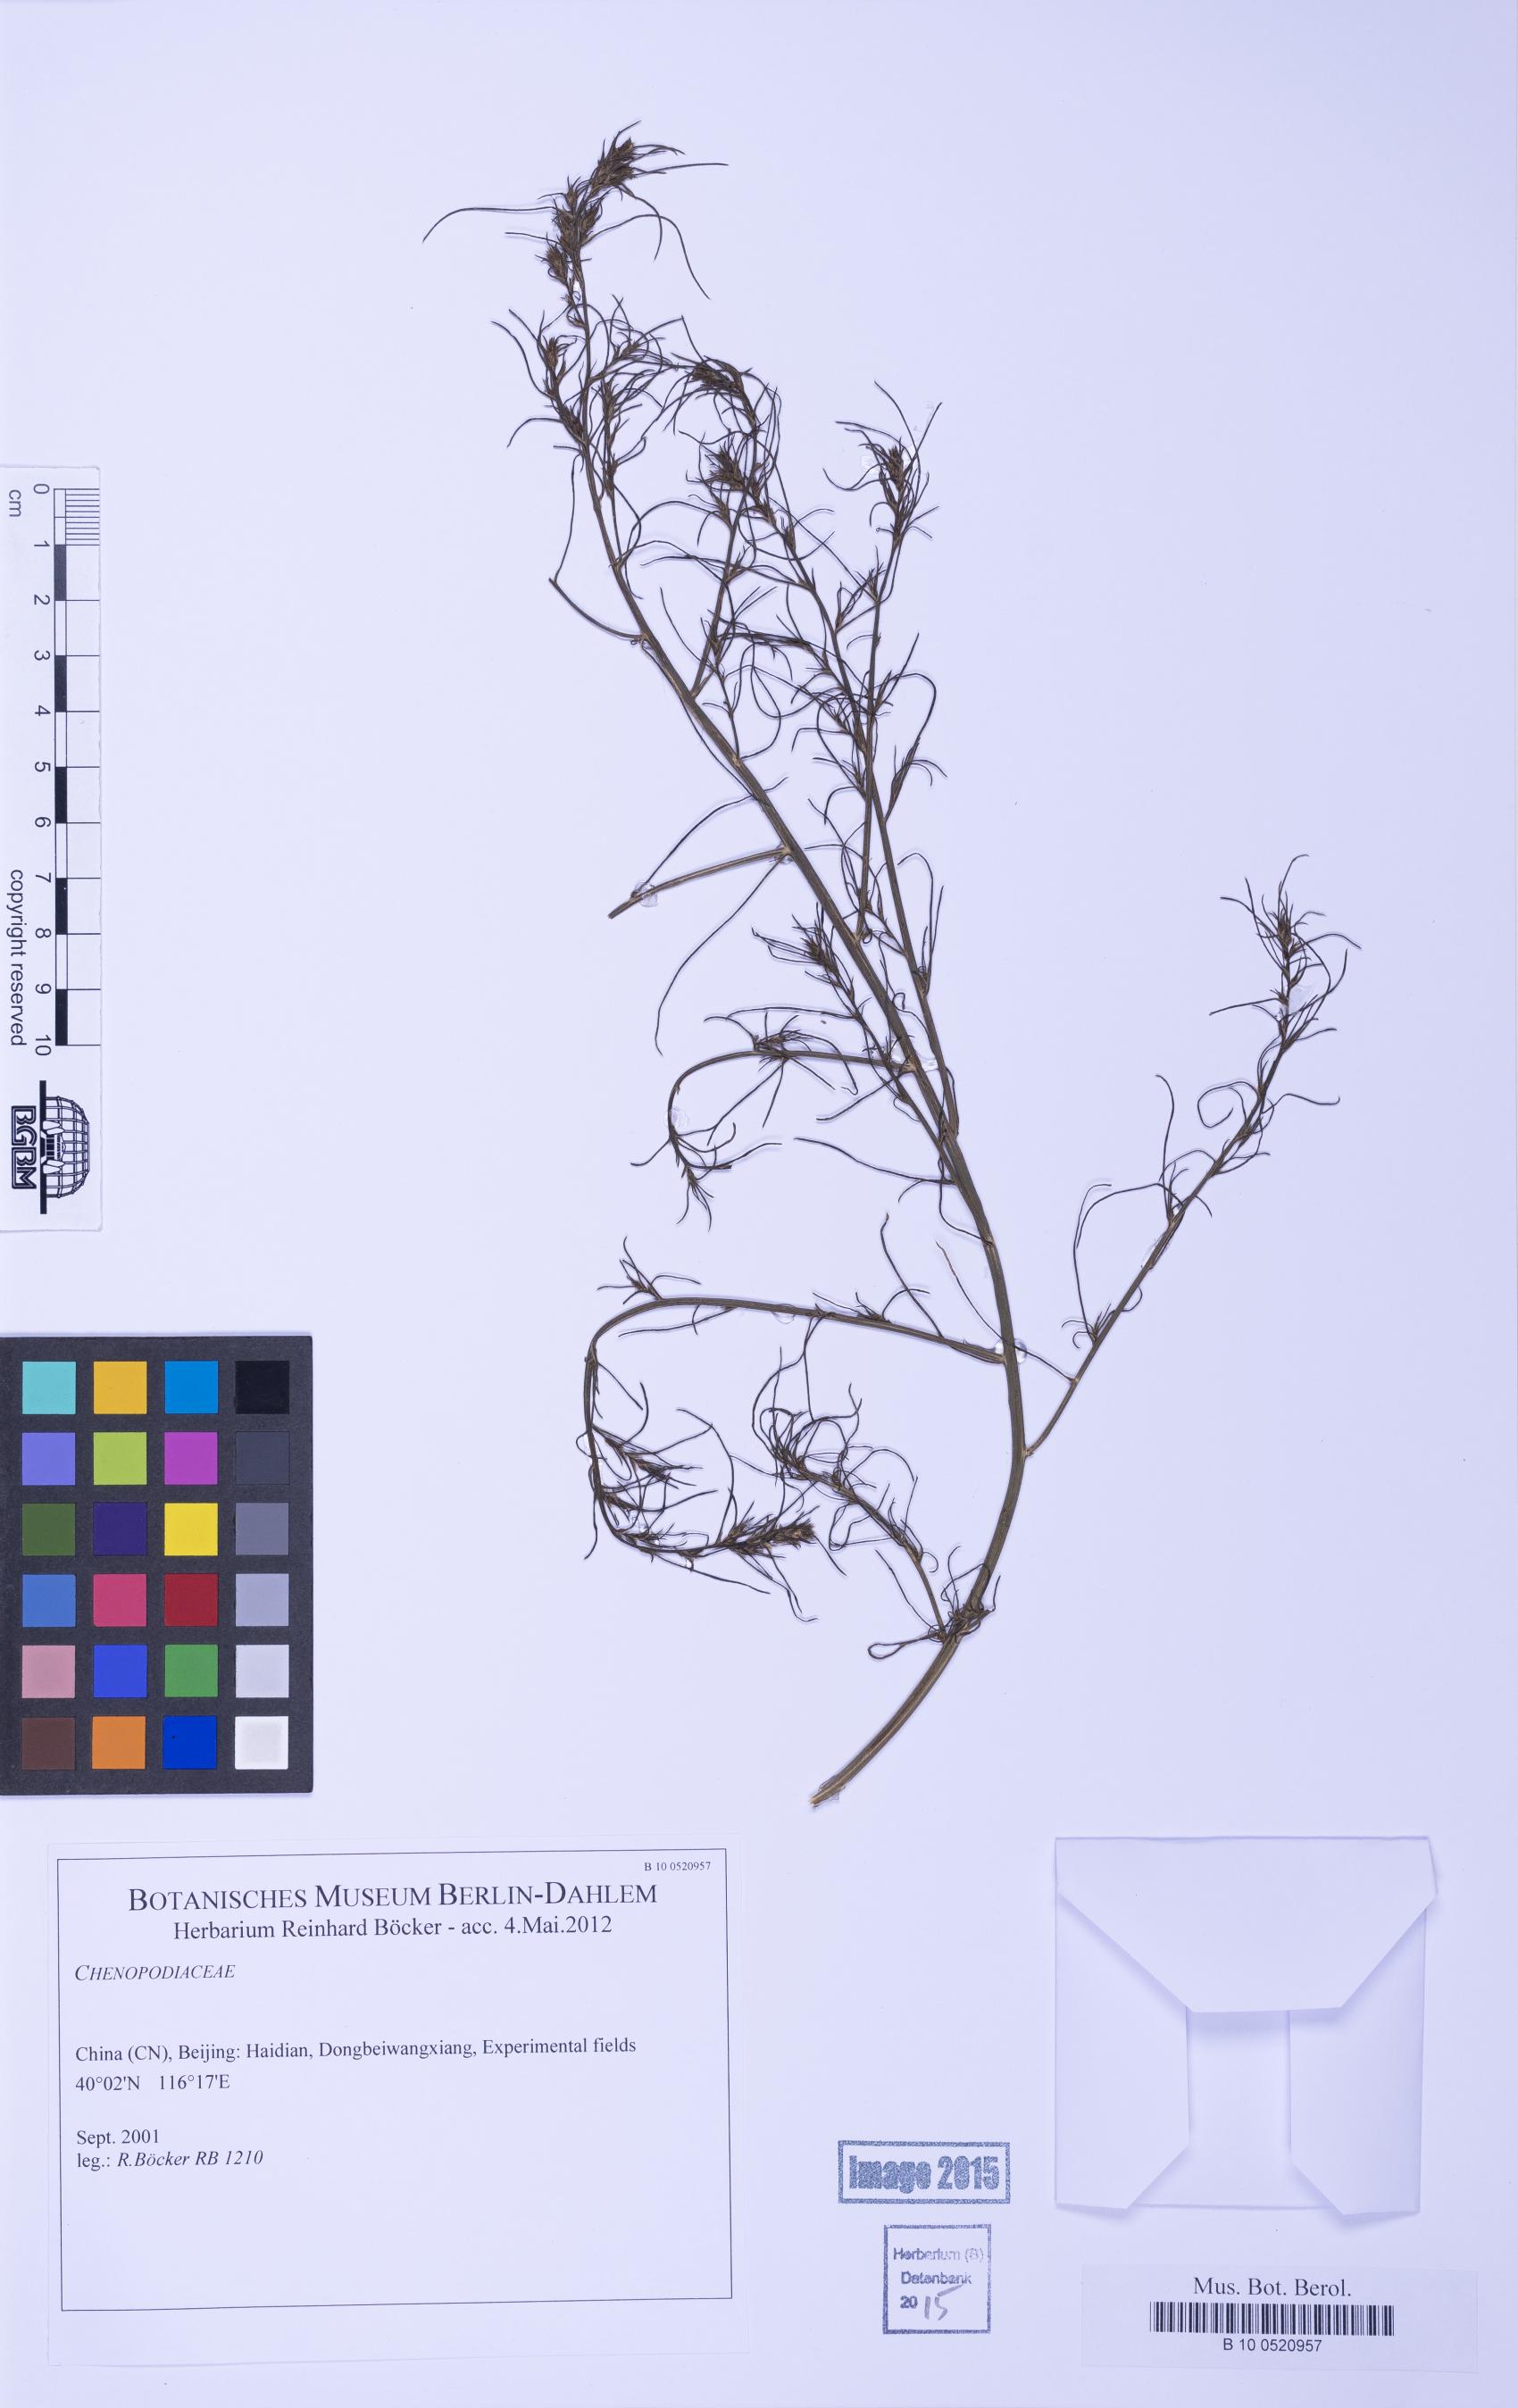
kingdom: Plantae
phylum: Tracheophyta
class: Magnoliopsida
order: Caryophyllales
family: Amaranthaceae
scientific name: Amaranthaceae
